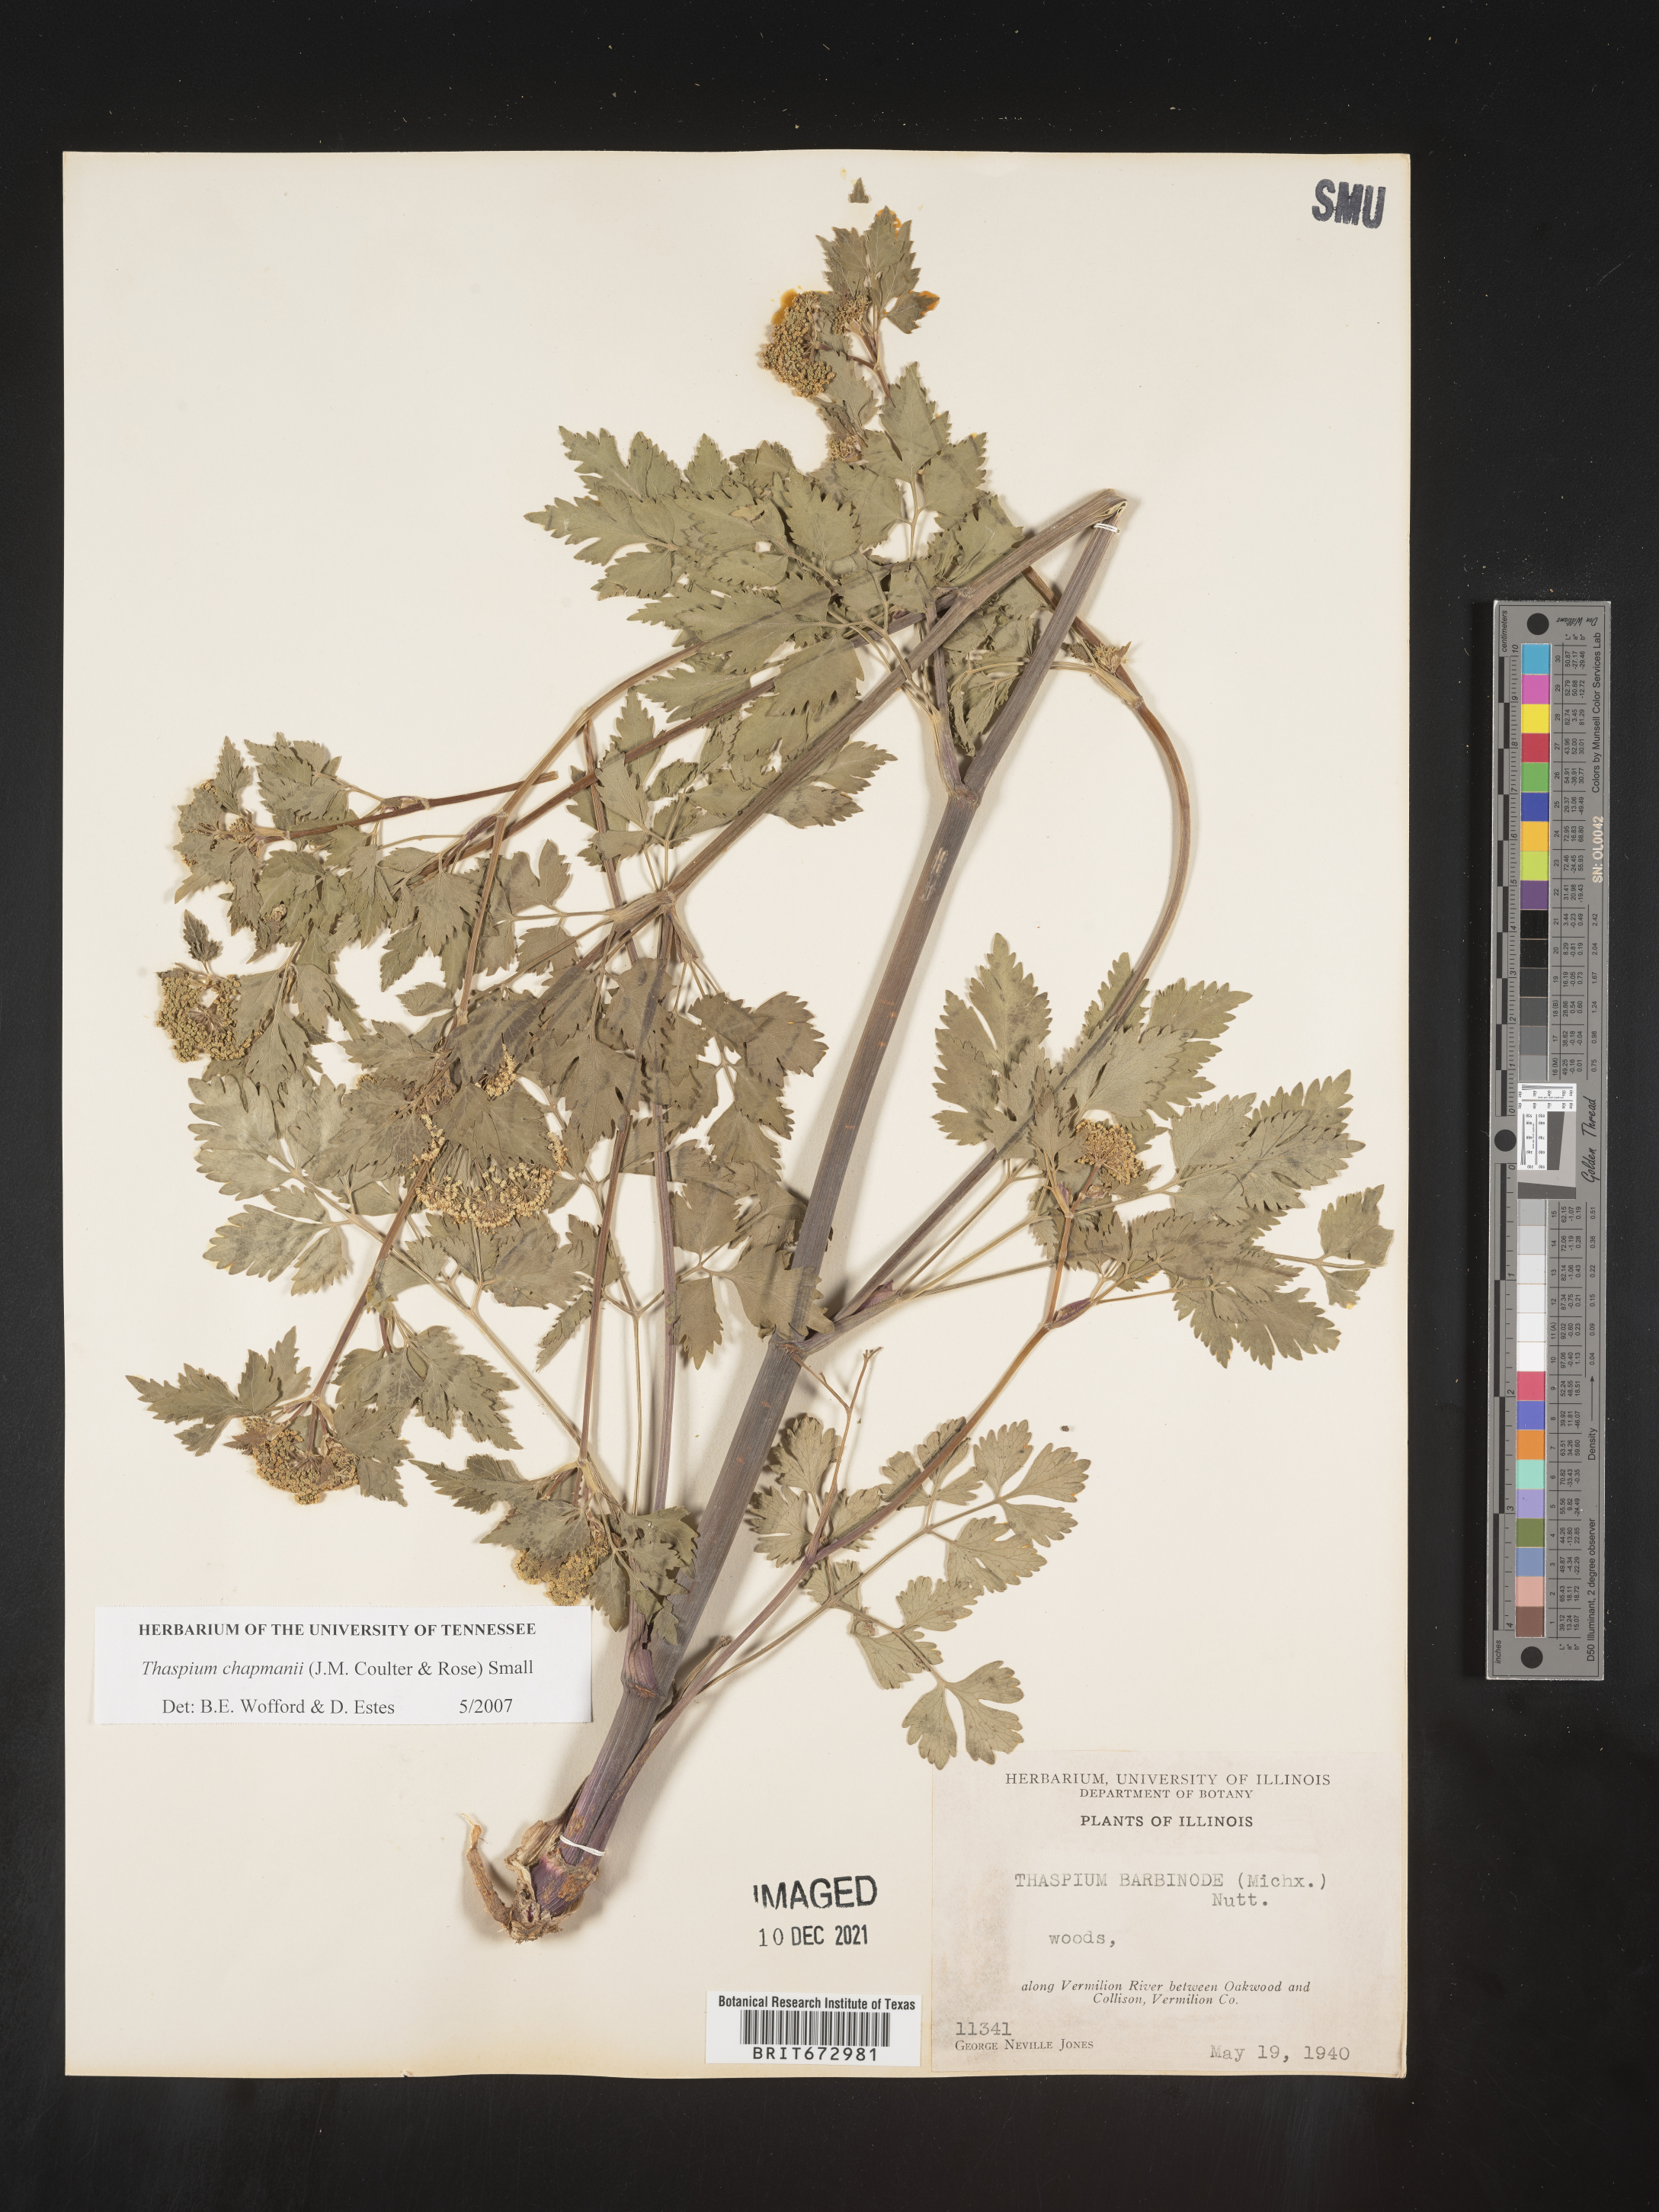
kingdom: Plantae
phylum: Tracheophyta
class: Magnoliopsida
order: Apiales
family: Apiaceae
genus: Thaspium
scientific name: Thaspium barbinode
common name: Bearded meadow-parsnip
